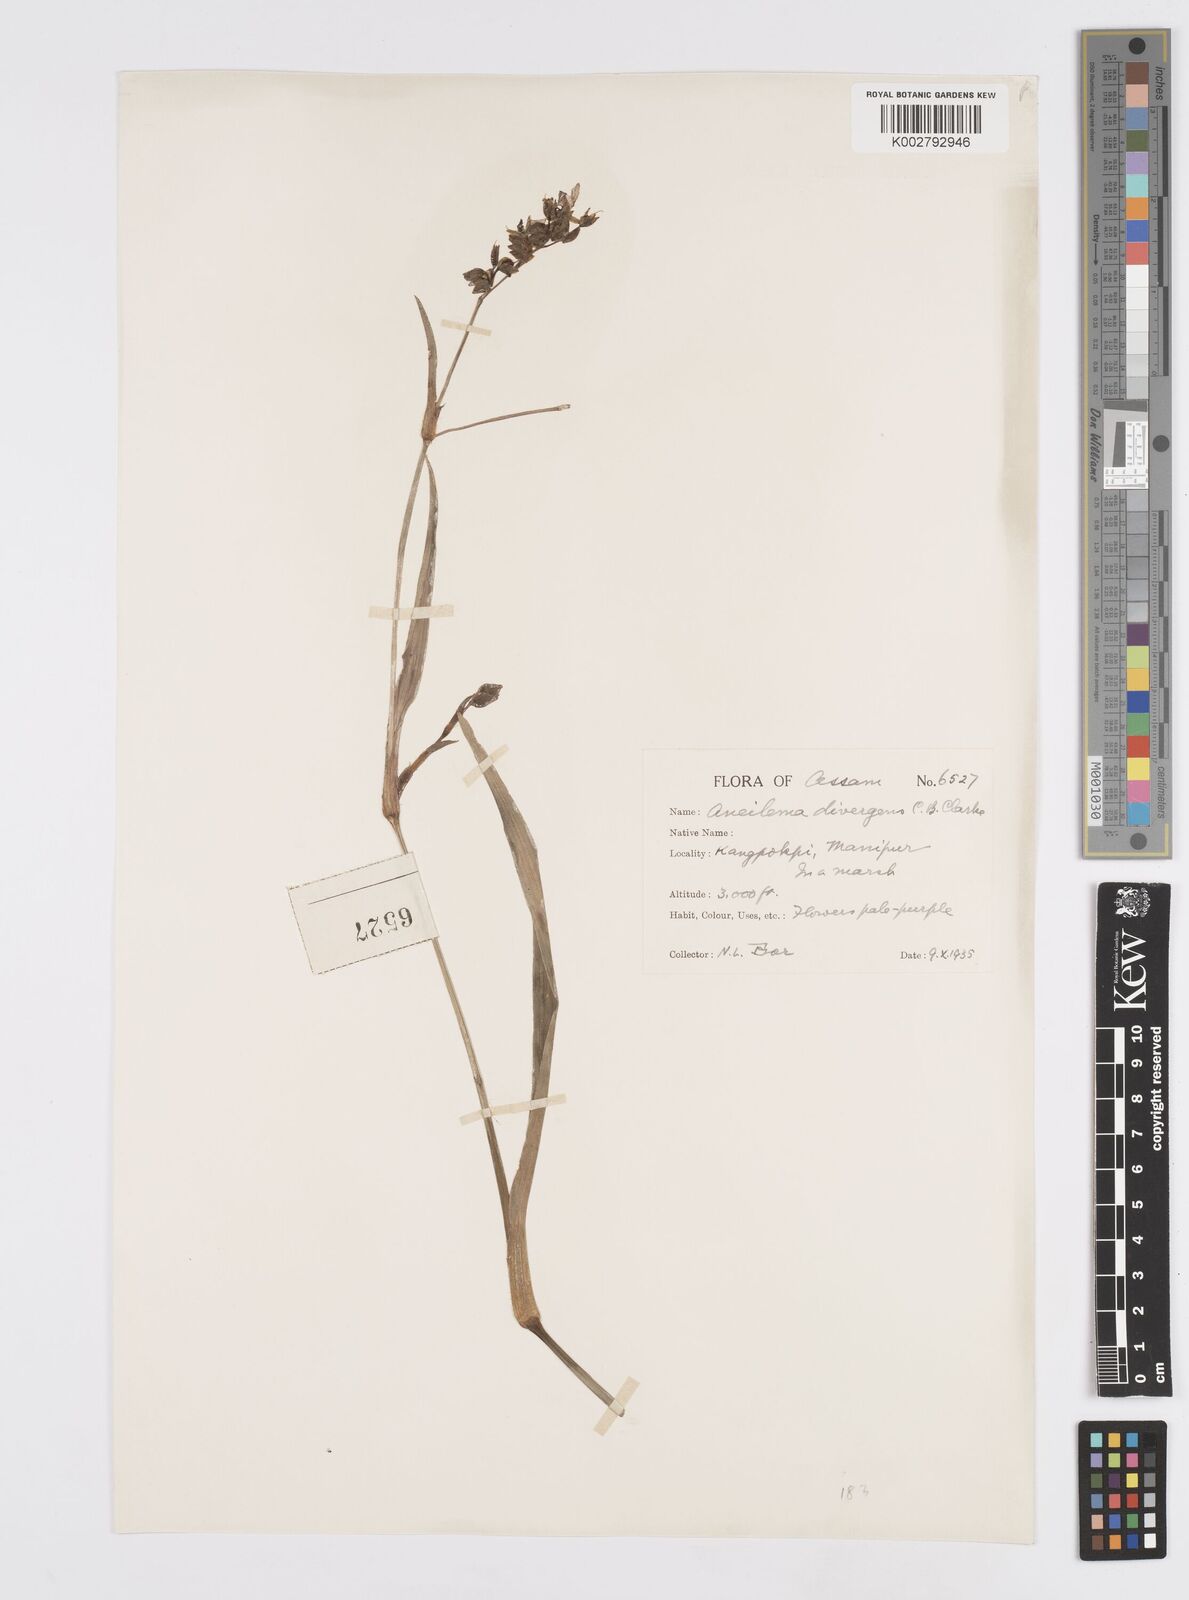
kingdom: Plantae
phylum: Tracheophyta
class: Liliopsida
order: Commelinales
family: Commelinaceae
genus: Murdannia
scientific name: Murdannia divergens
